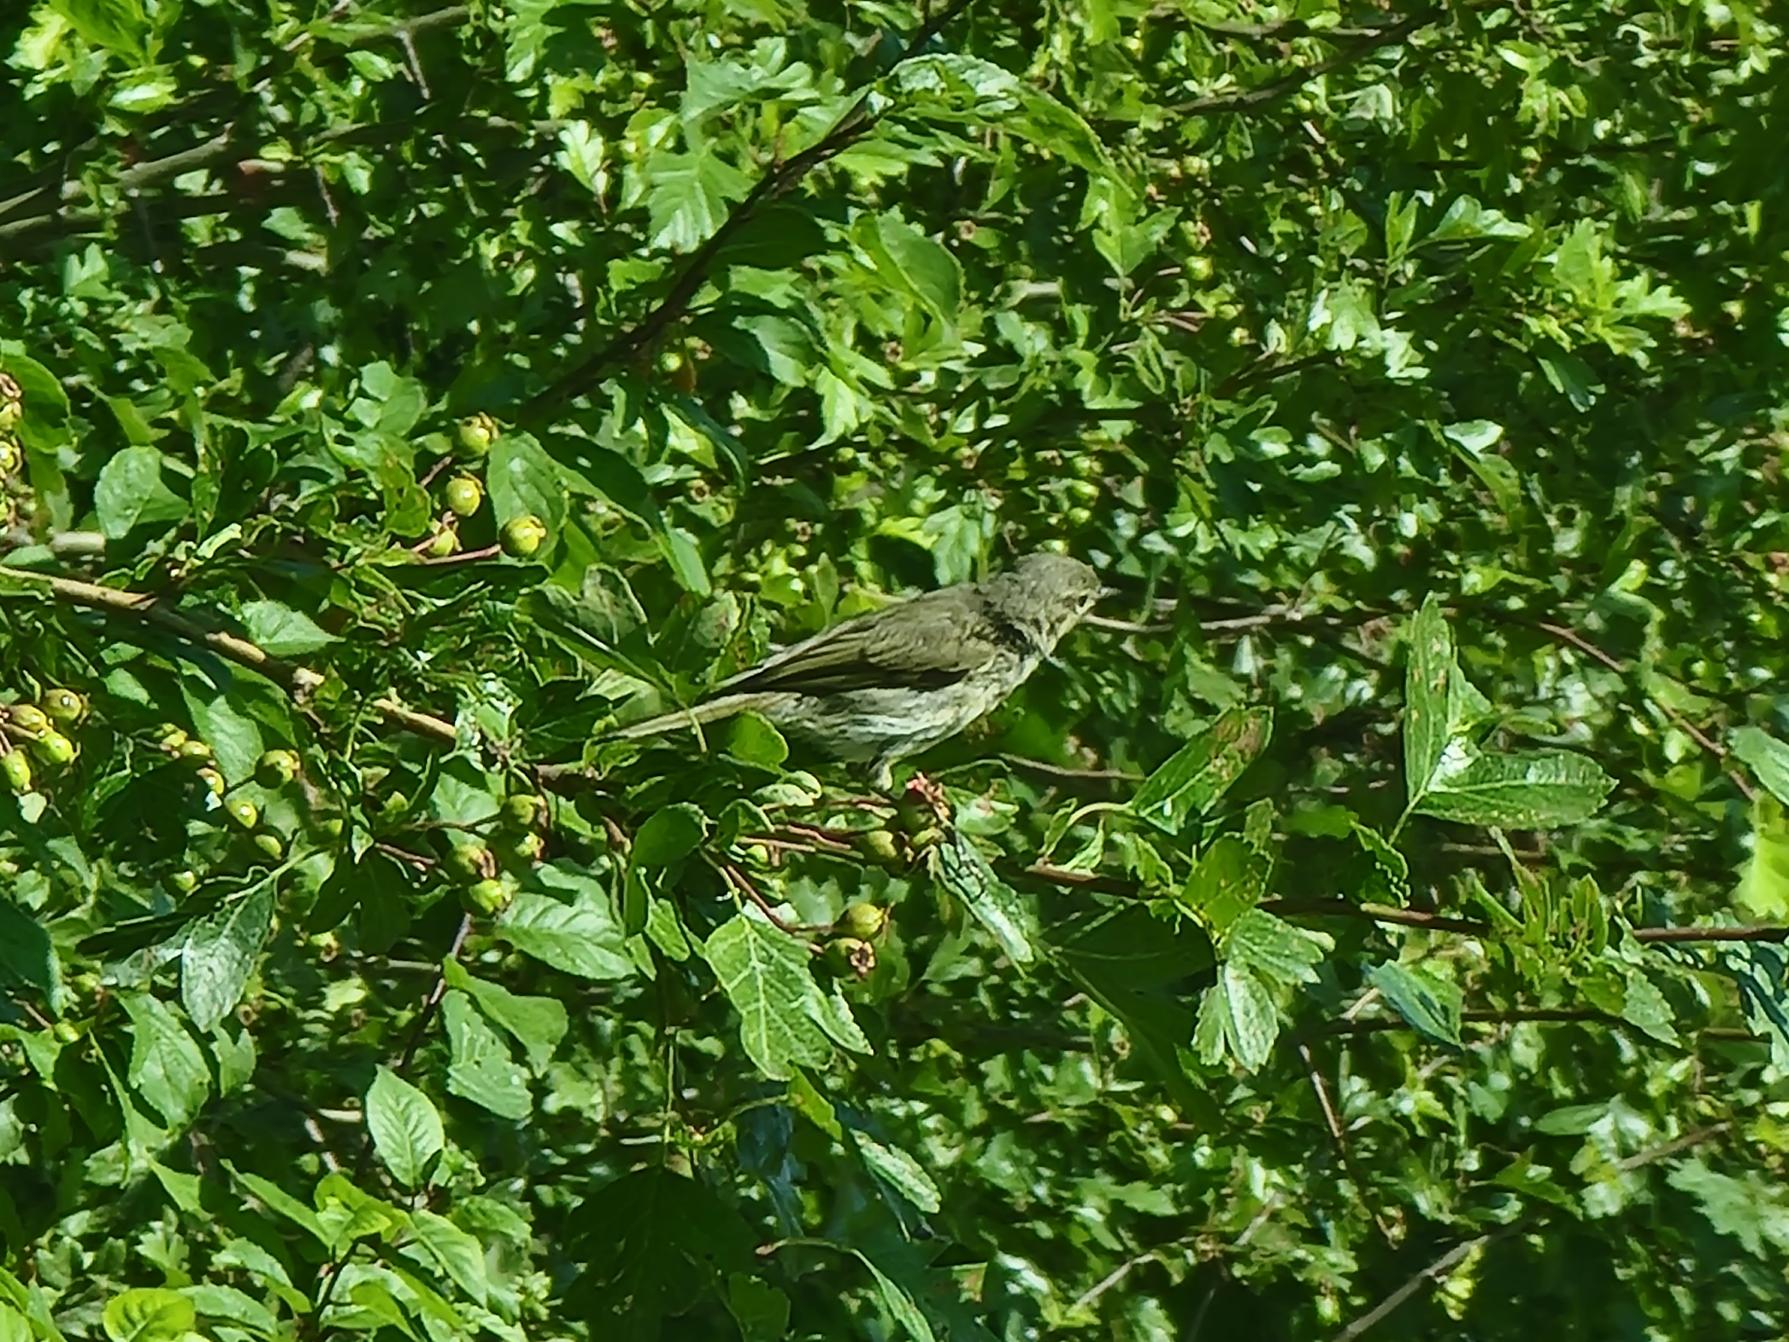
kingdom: Animalia
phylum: Chordata
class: Aves
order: Passeriformes
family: Phylloscopidae
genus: Phylloscopus
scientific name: Phylloscopus collybita
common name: Gransanger
